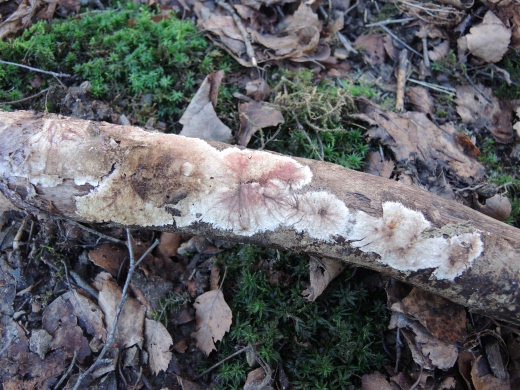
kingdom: Fungi
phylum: Basidiomycota
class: Agaricomycetes
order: Polyporales
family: Steccherinaceae
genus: Steccherinum
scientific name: Steccherinum fimbriatum
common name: trådet skønpig
